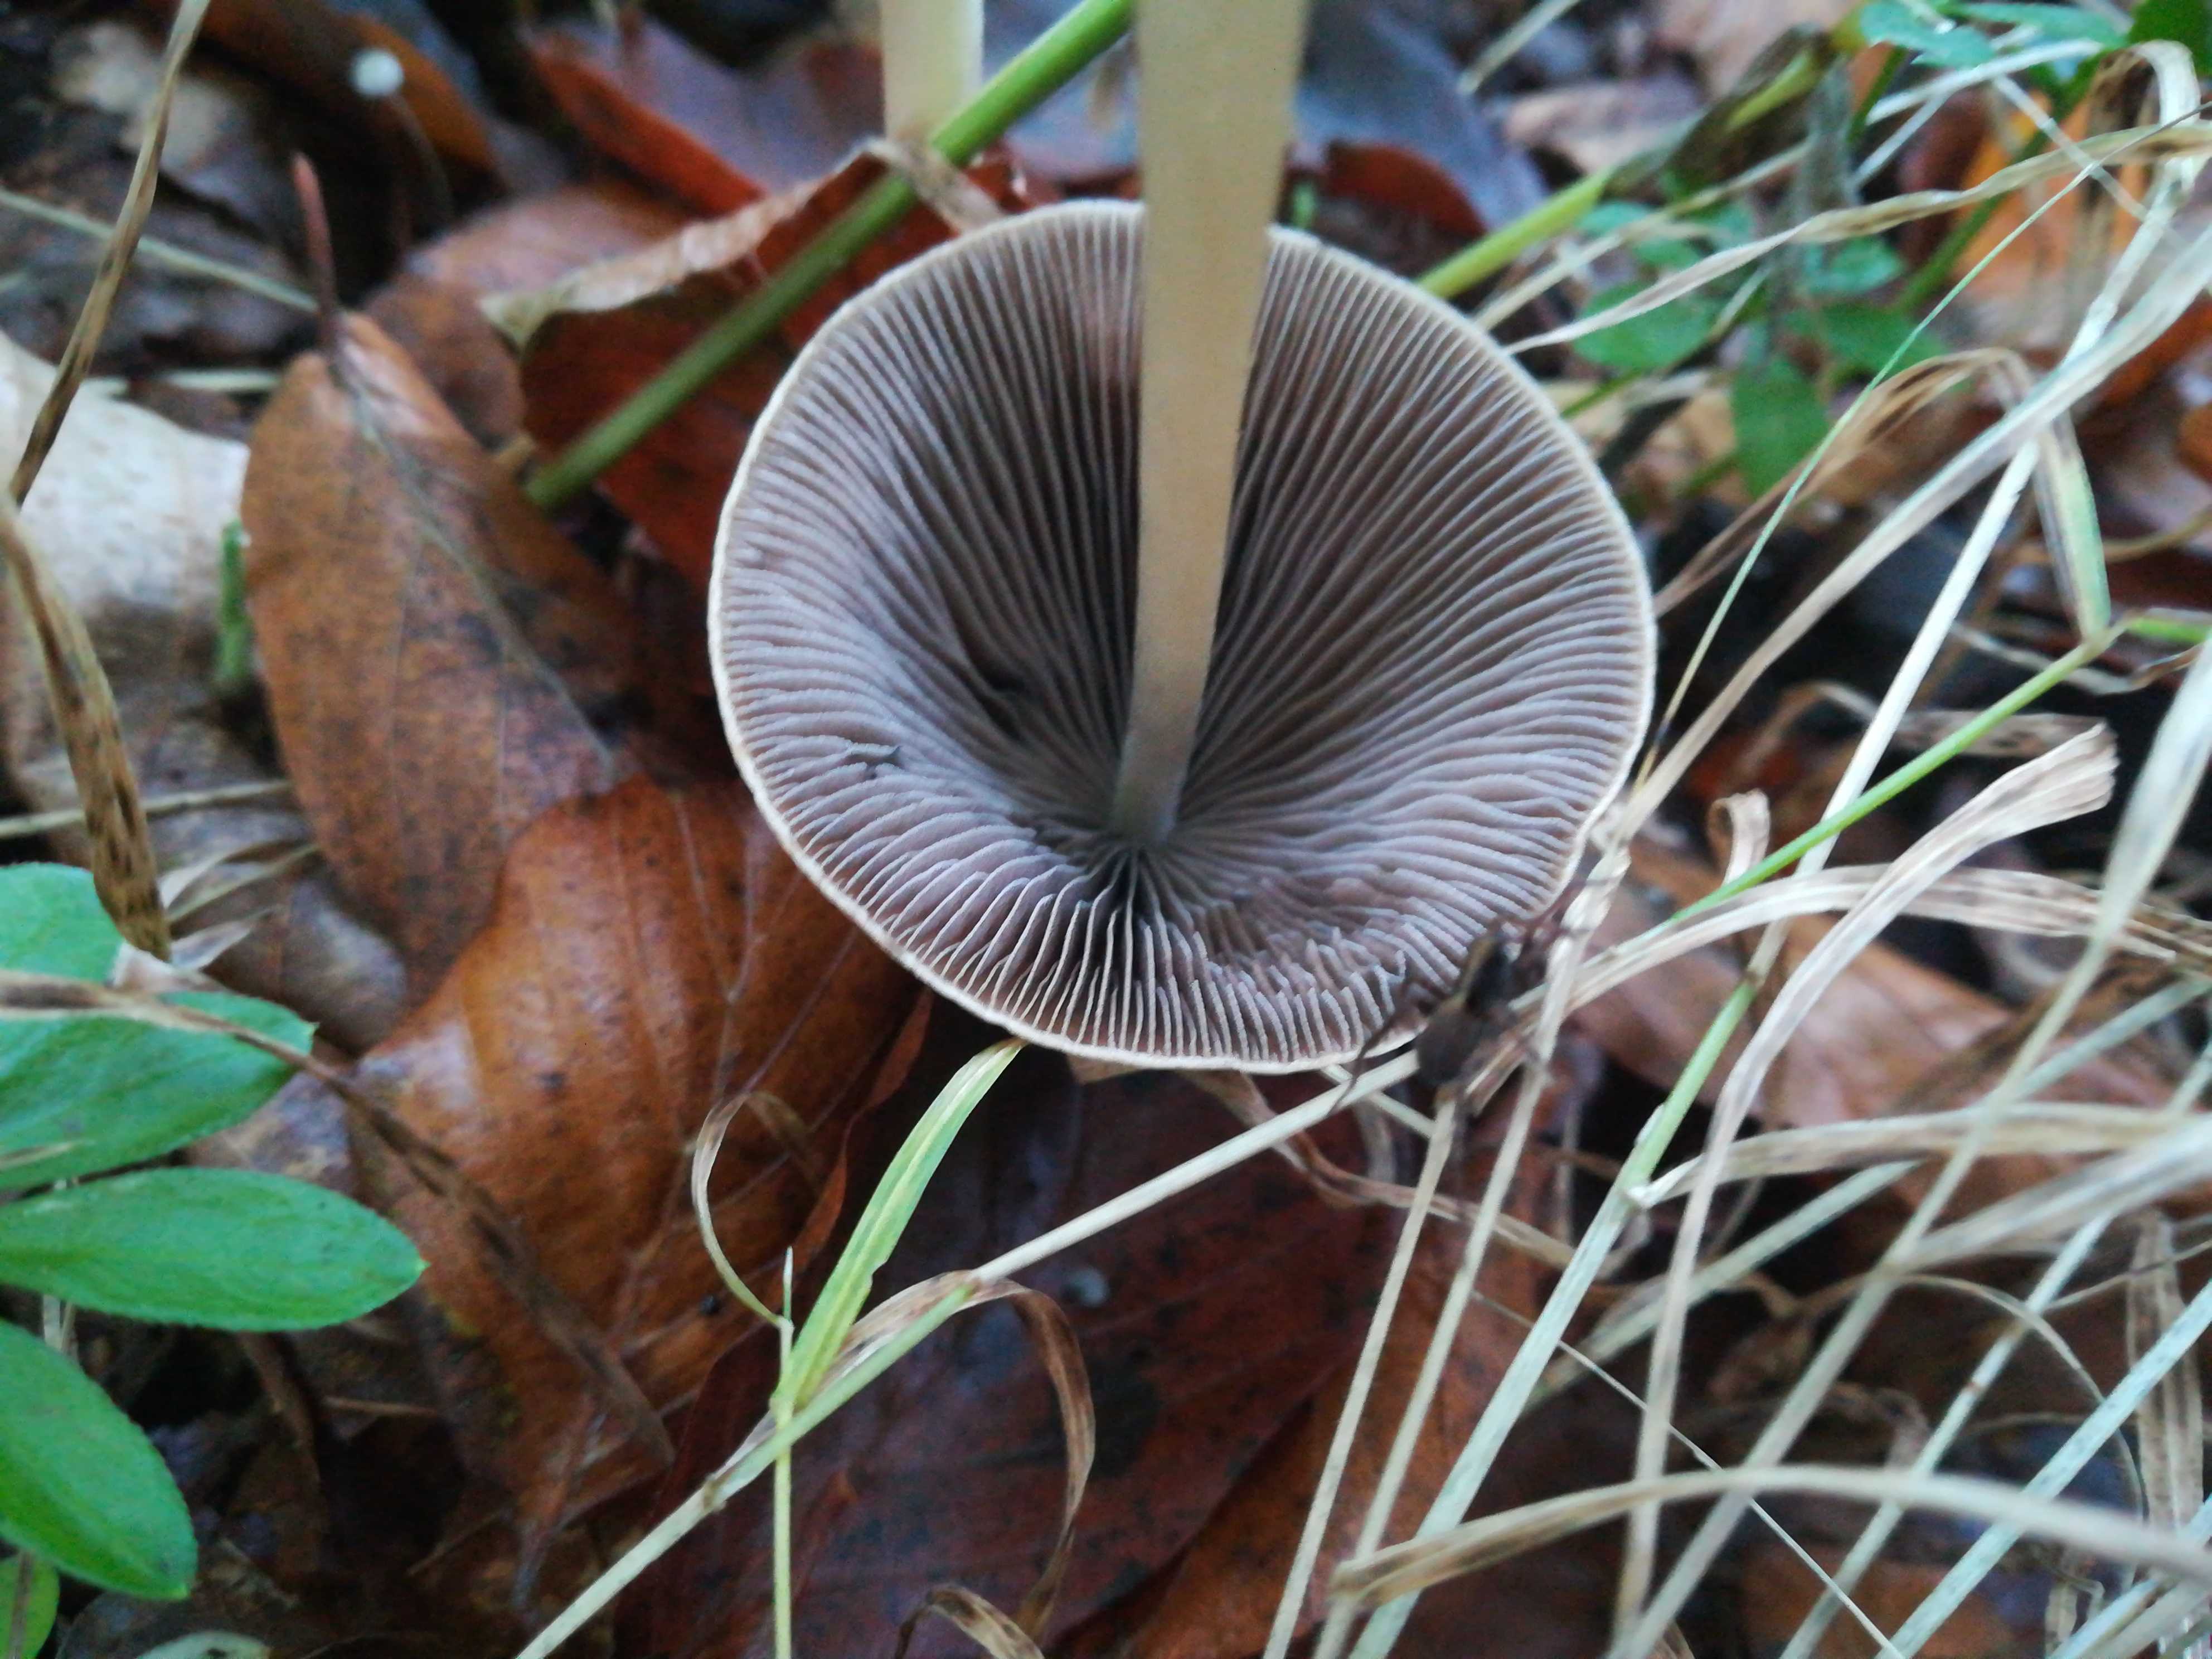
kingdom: Fungi
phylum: Basidiomycota
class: Agaricomycetes
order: Agaricales
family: Psathyrellaceae
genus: Parasola
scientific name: Parasola conopilea
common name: kegle-hjulhat
